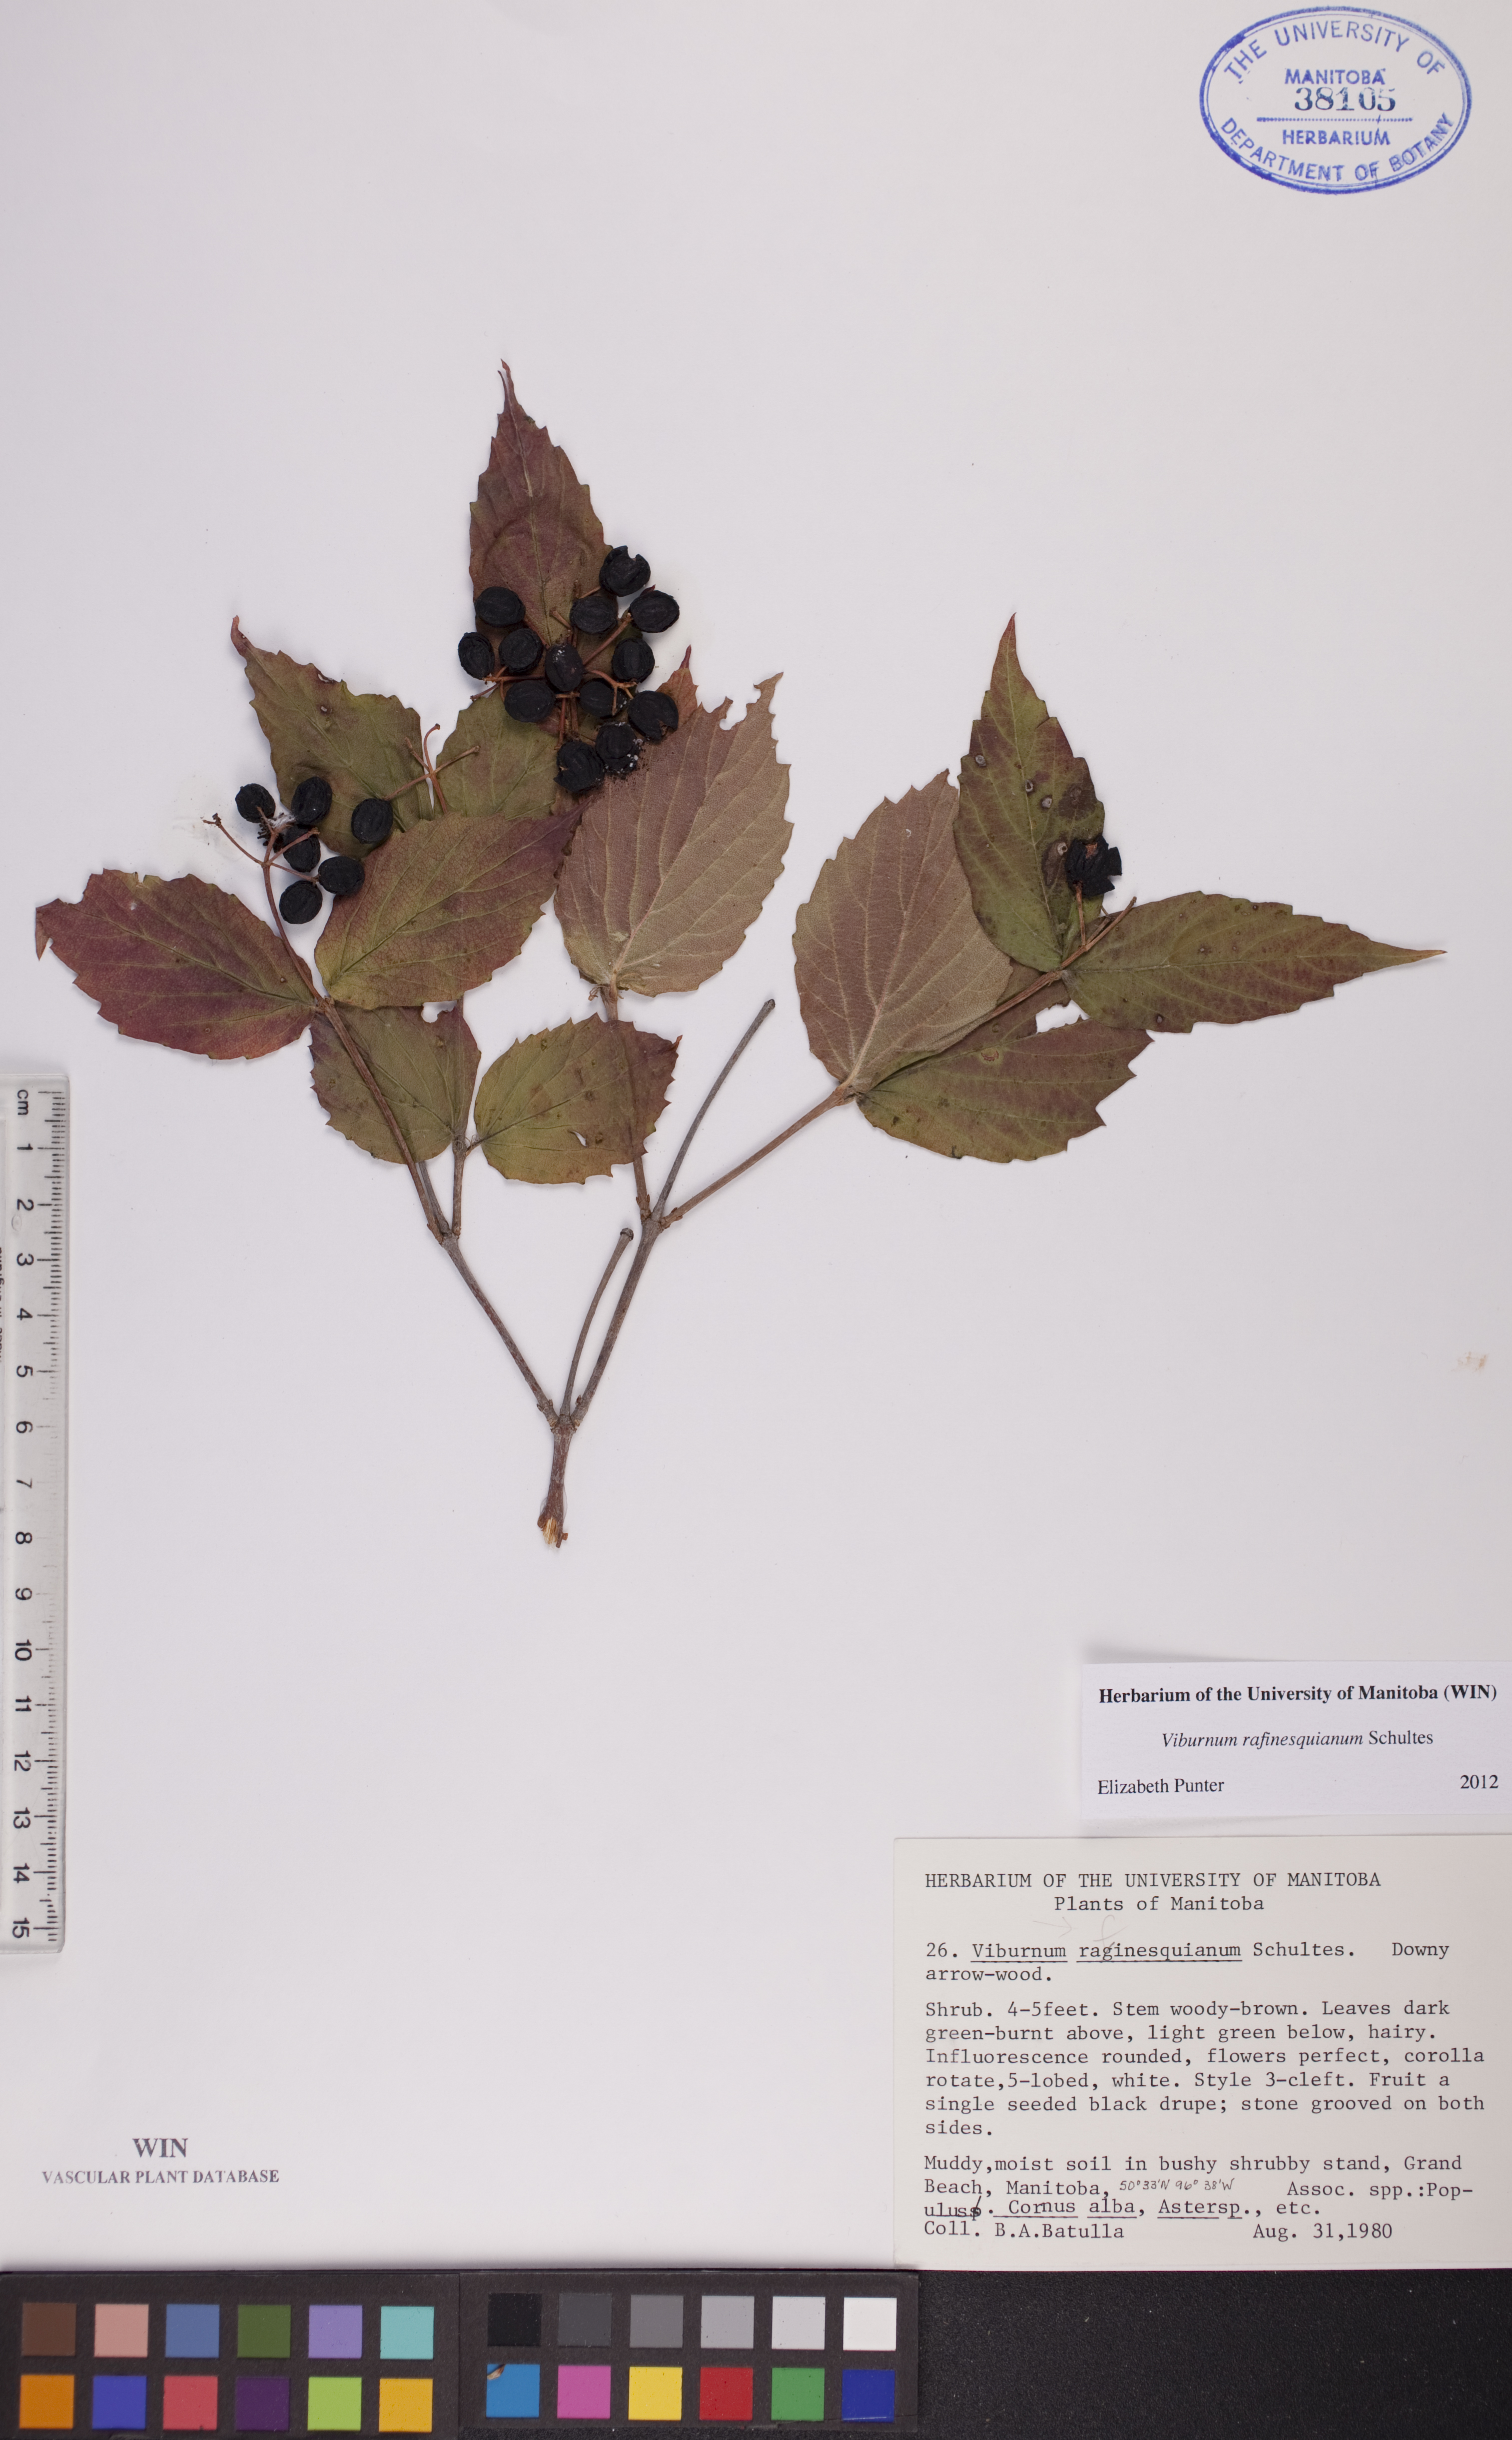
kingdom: Plantae
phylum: Tracheophyta
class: Magnoliopsida
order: Dipsacales
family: Viburnaceae
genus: Viburnum
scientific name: Viburnum rafinesquianum
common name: Downy arrow-wood
